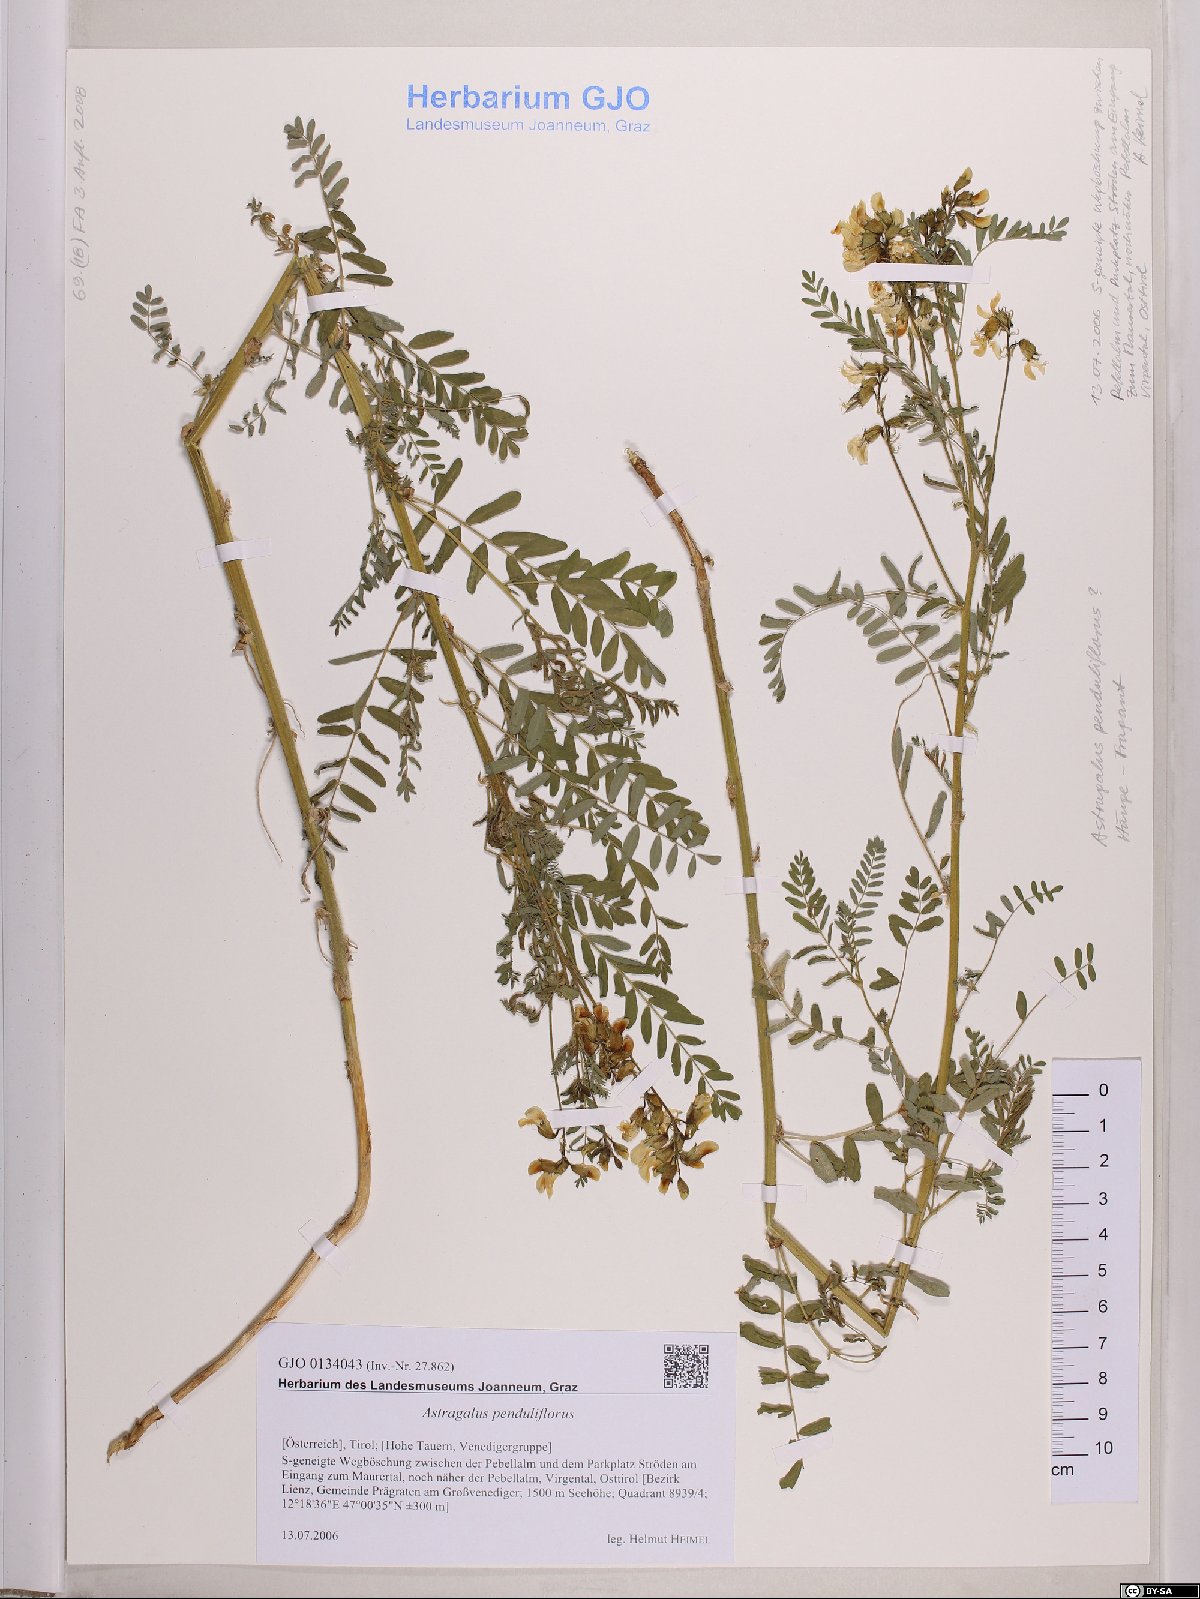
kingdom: Plantae
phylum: Tracheophyta
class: Magnoliopsida
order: Fabales
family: Fabaceae
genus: Astragalus
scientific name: Astragalus penduliflorus
